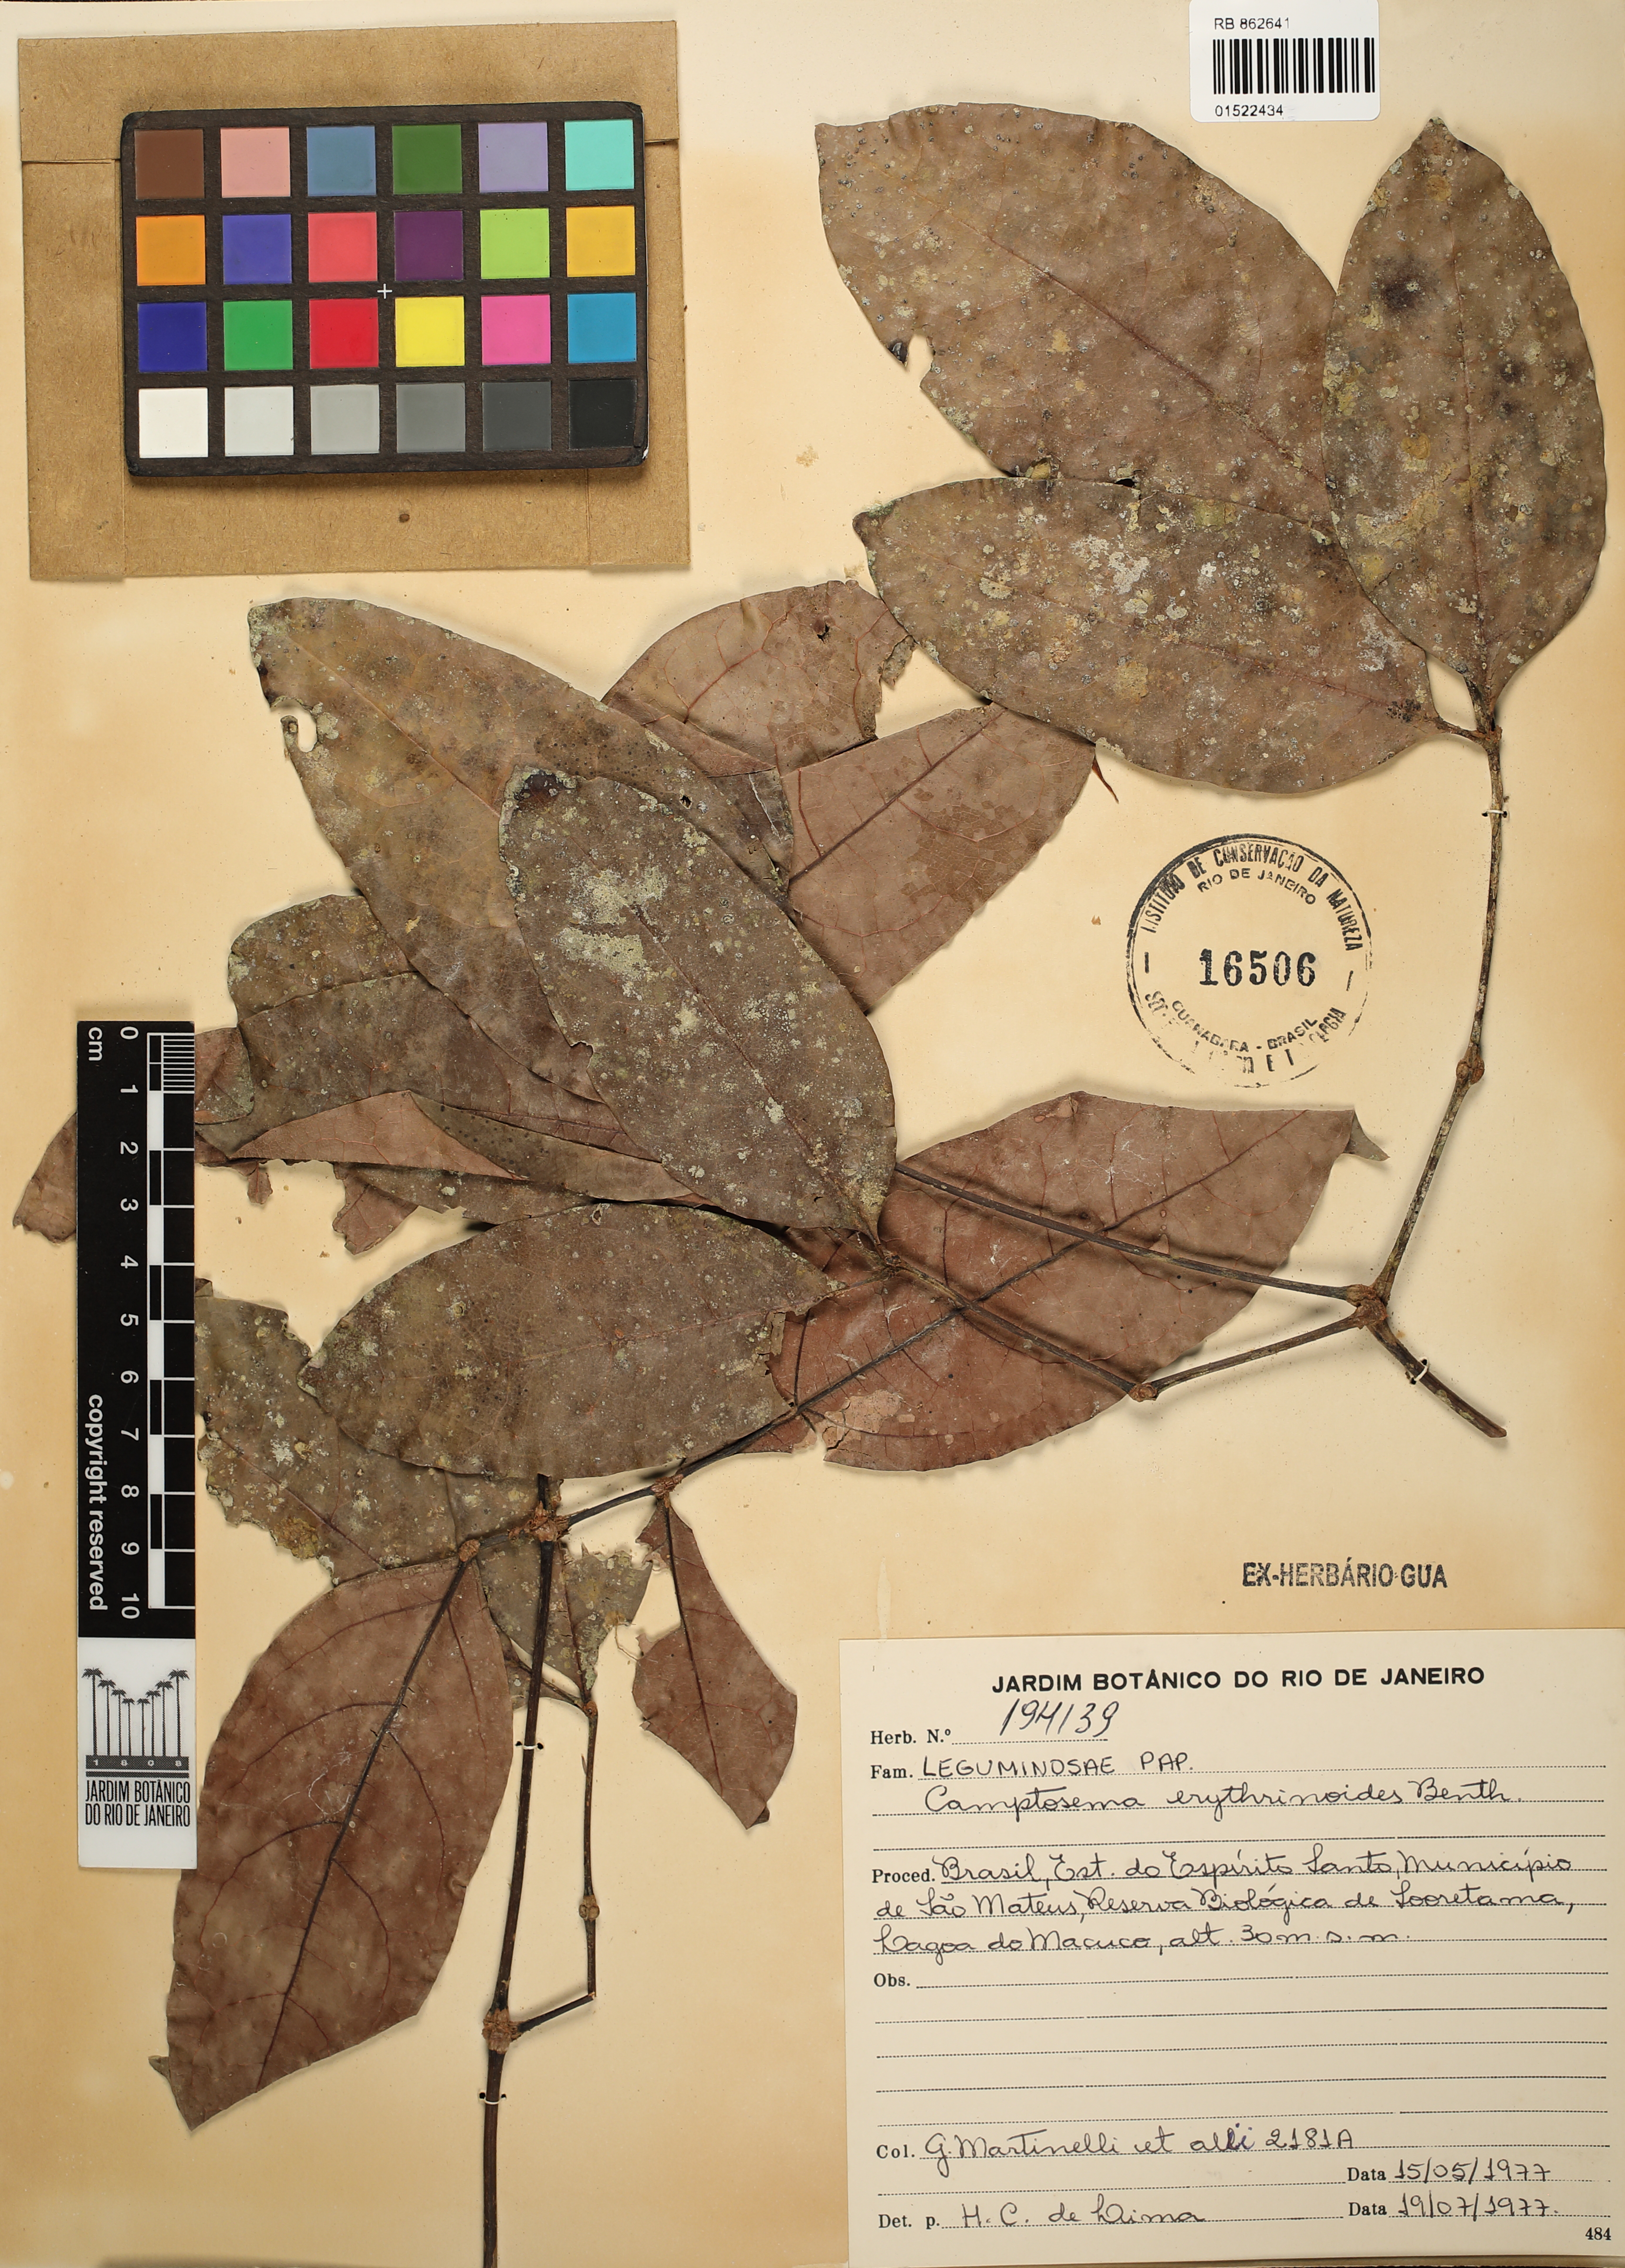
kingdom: Plantae
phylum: Tracheophyta
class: Magnoliopsida
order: Fabales
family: Fabaceae
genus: Cratylia
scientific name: Cratylia isopetala
